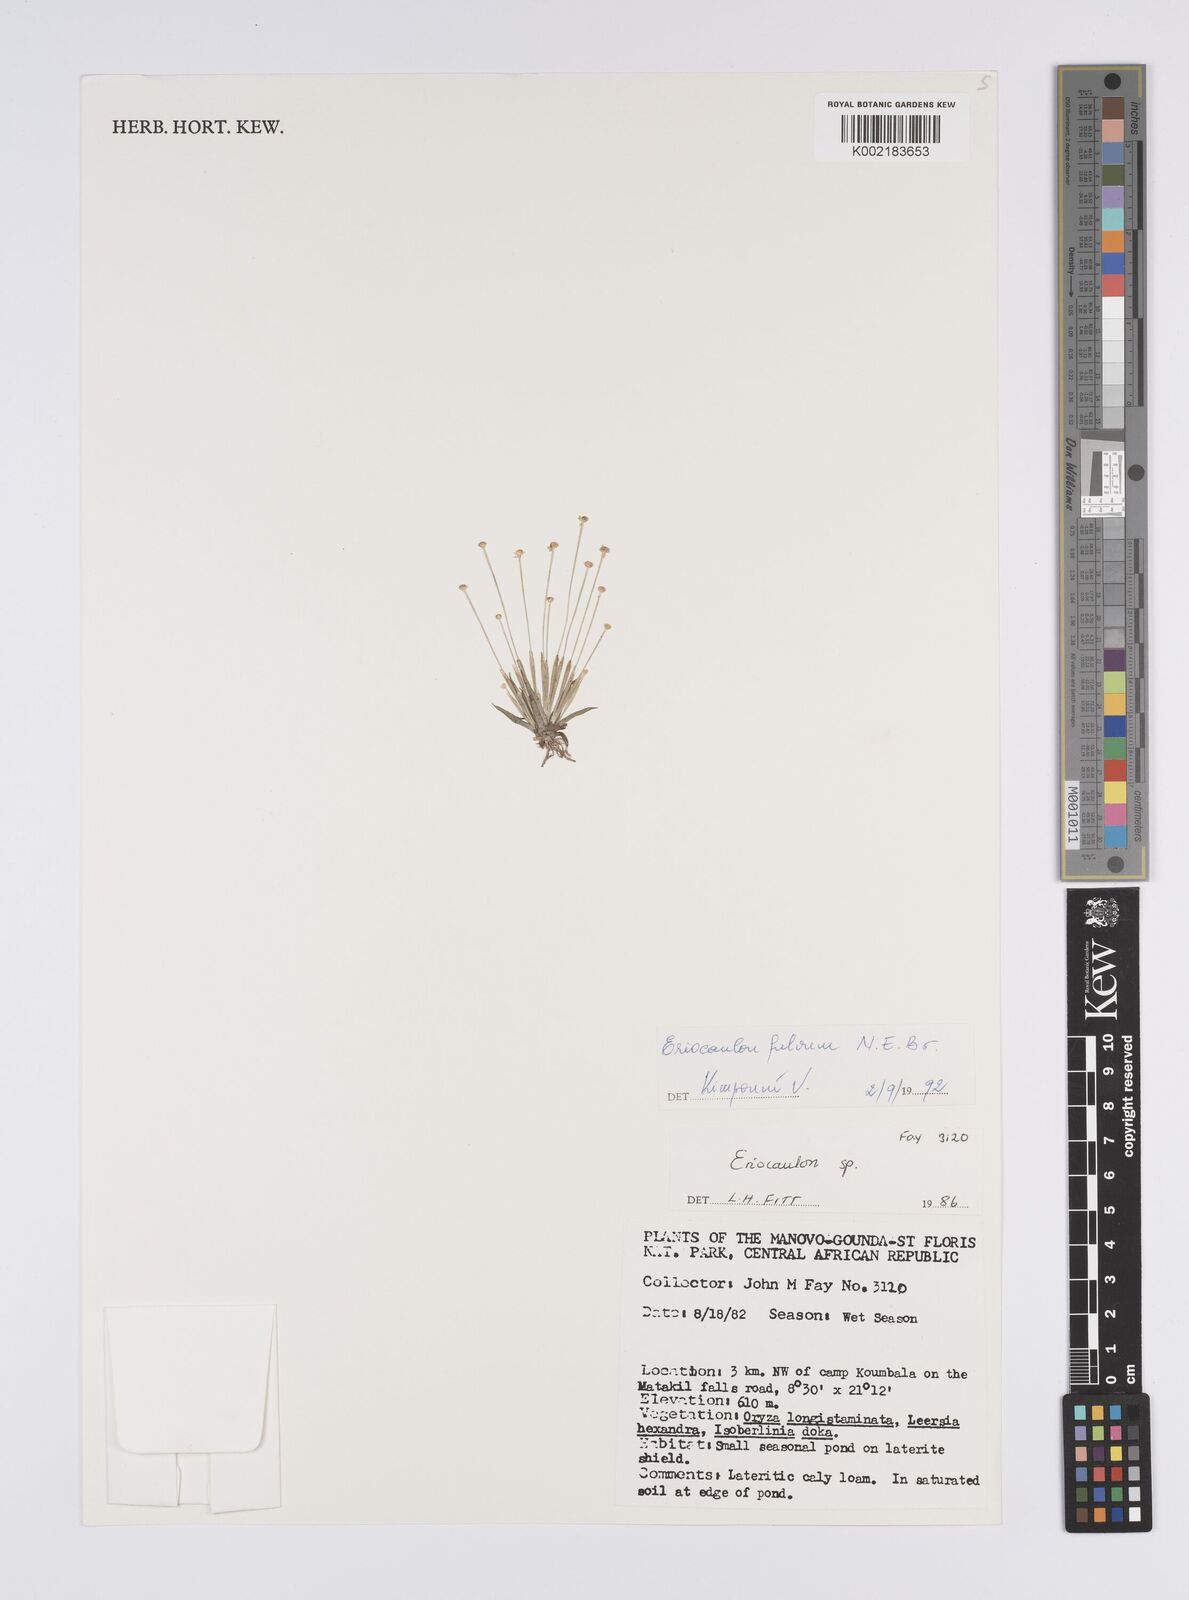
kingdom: Plantae
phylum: Tracheophyta
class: Liliopsida
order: Poales
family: Eriocaulaceae
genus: Eriocaulon
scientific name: Eriocaulon fulvum
